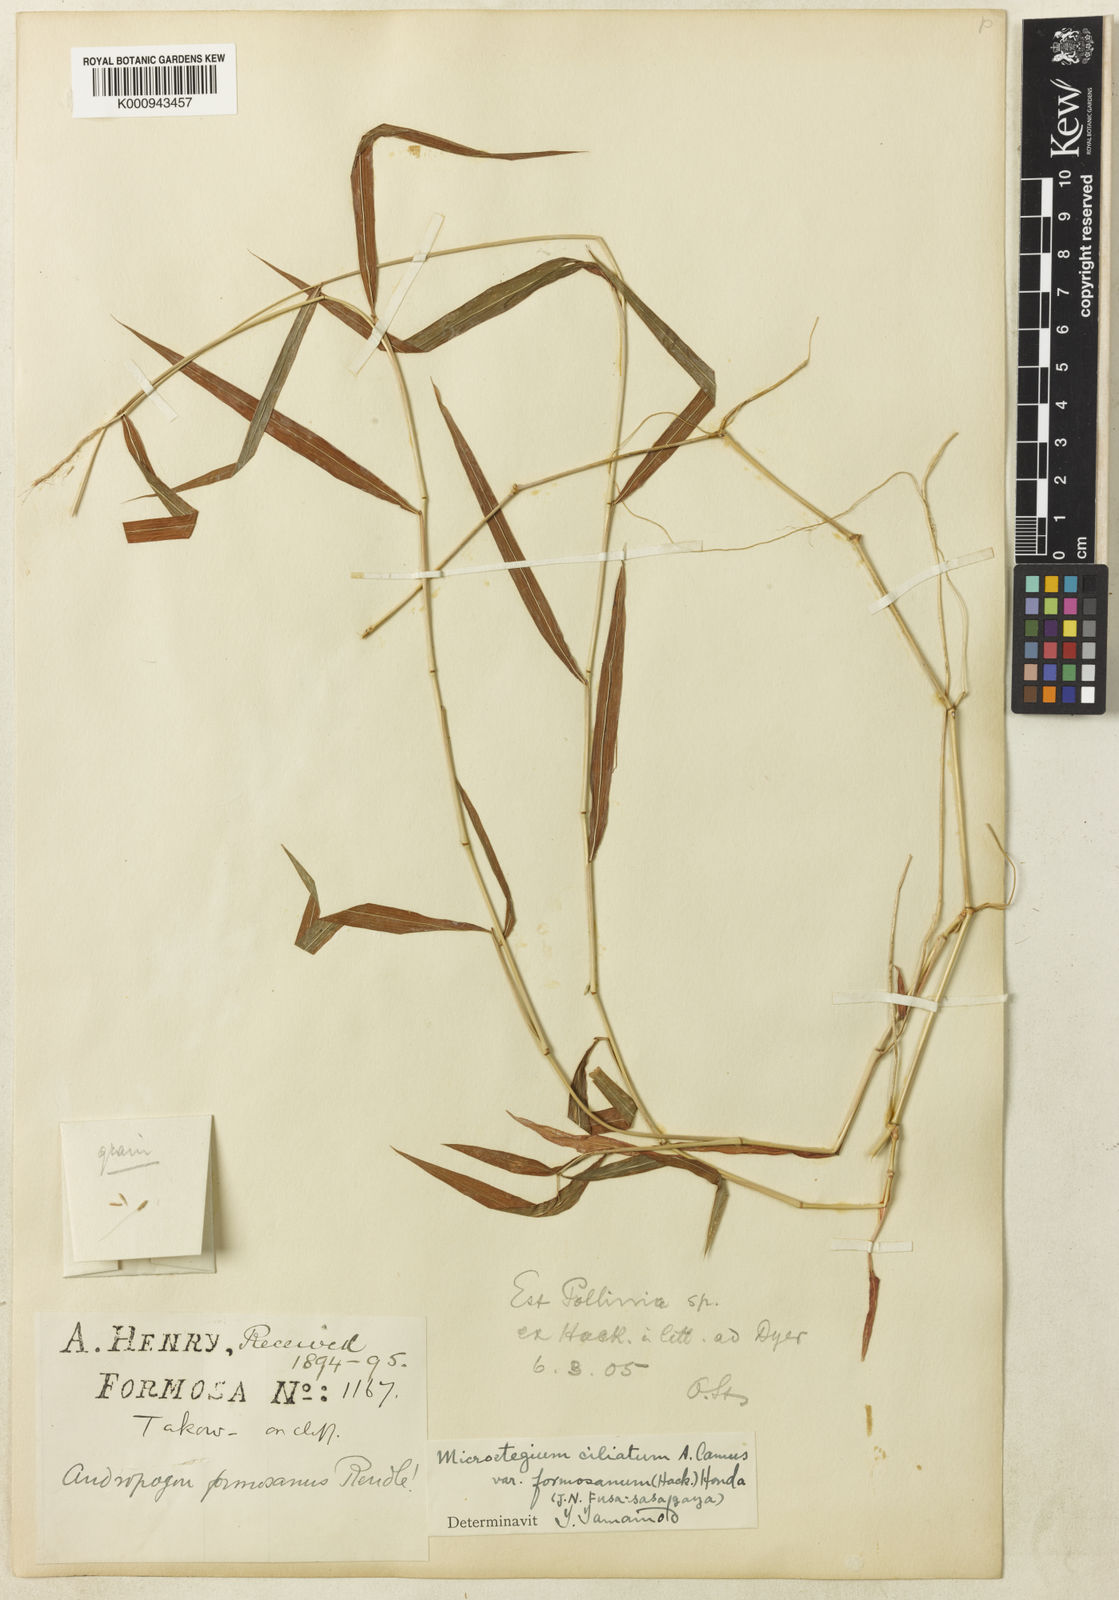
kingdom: Plantae
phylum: Tracheophyta
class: Liliopsida
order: Poales
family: Poaceae
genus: Microstegium
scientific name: Microstegium fasciculatum
